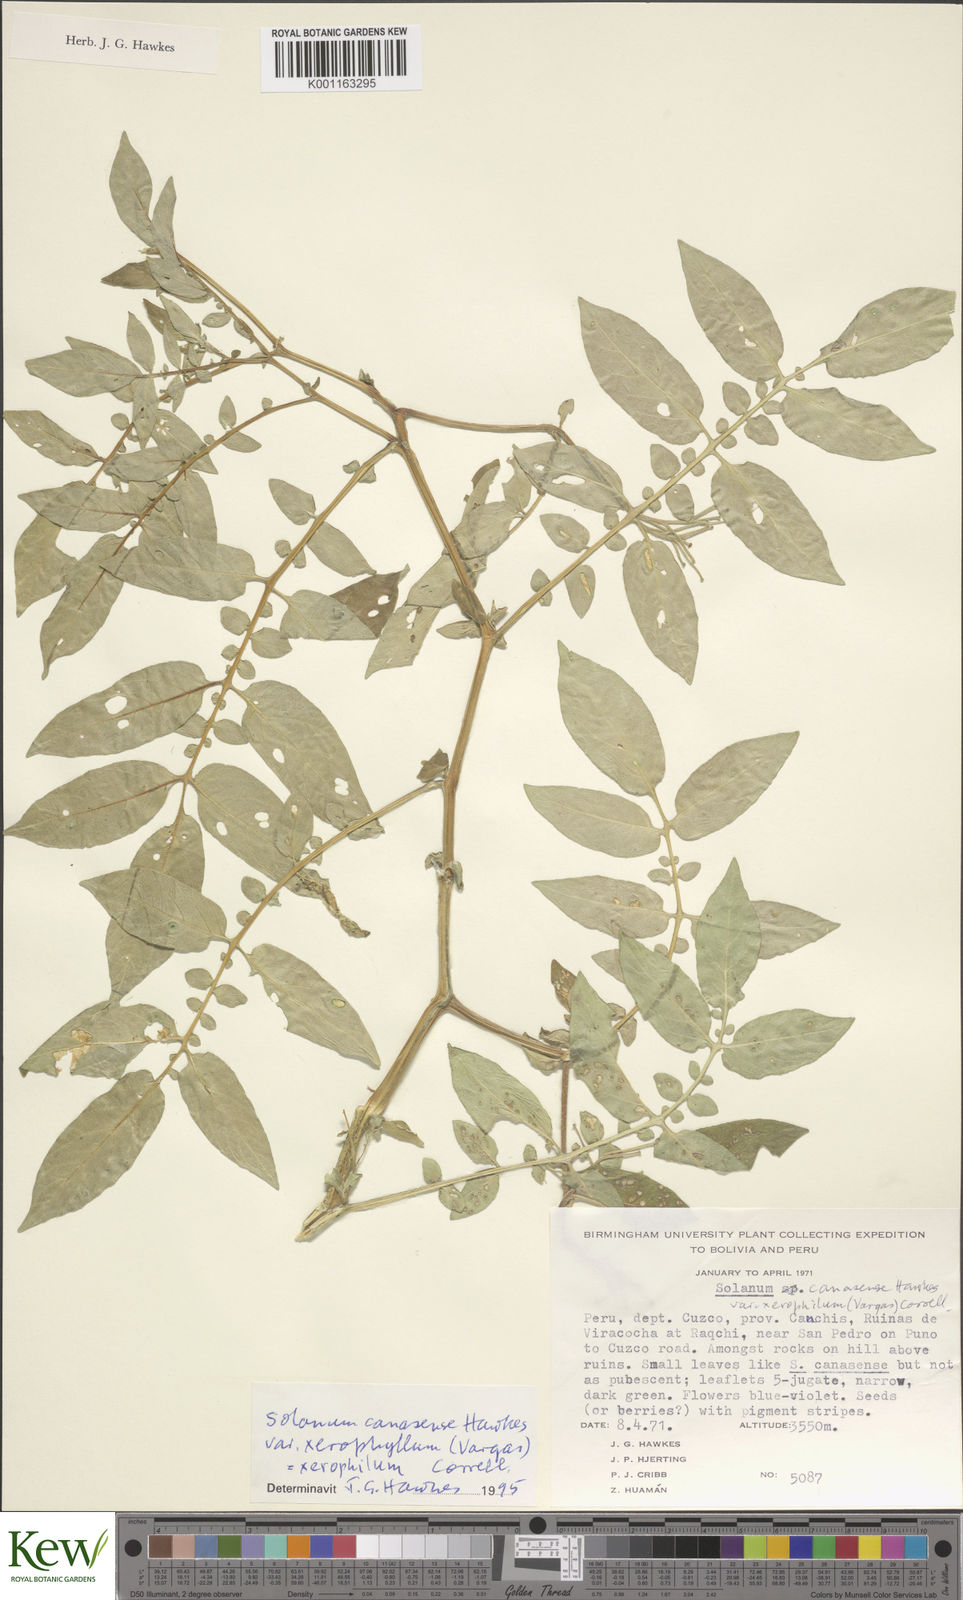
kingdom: Plantae
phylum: Tracheophyta
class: Magnoliopsida
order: Solanales
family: Solanaceae
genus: Solanum
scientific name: Solanum candolleanum
